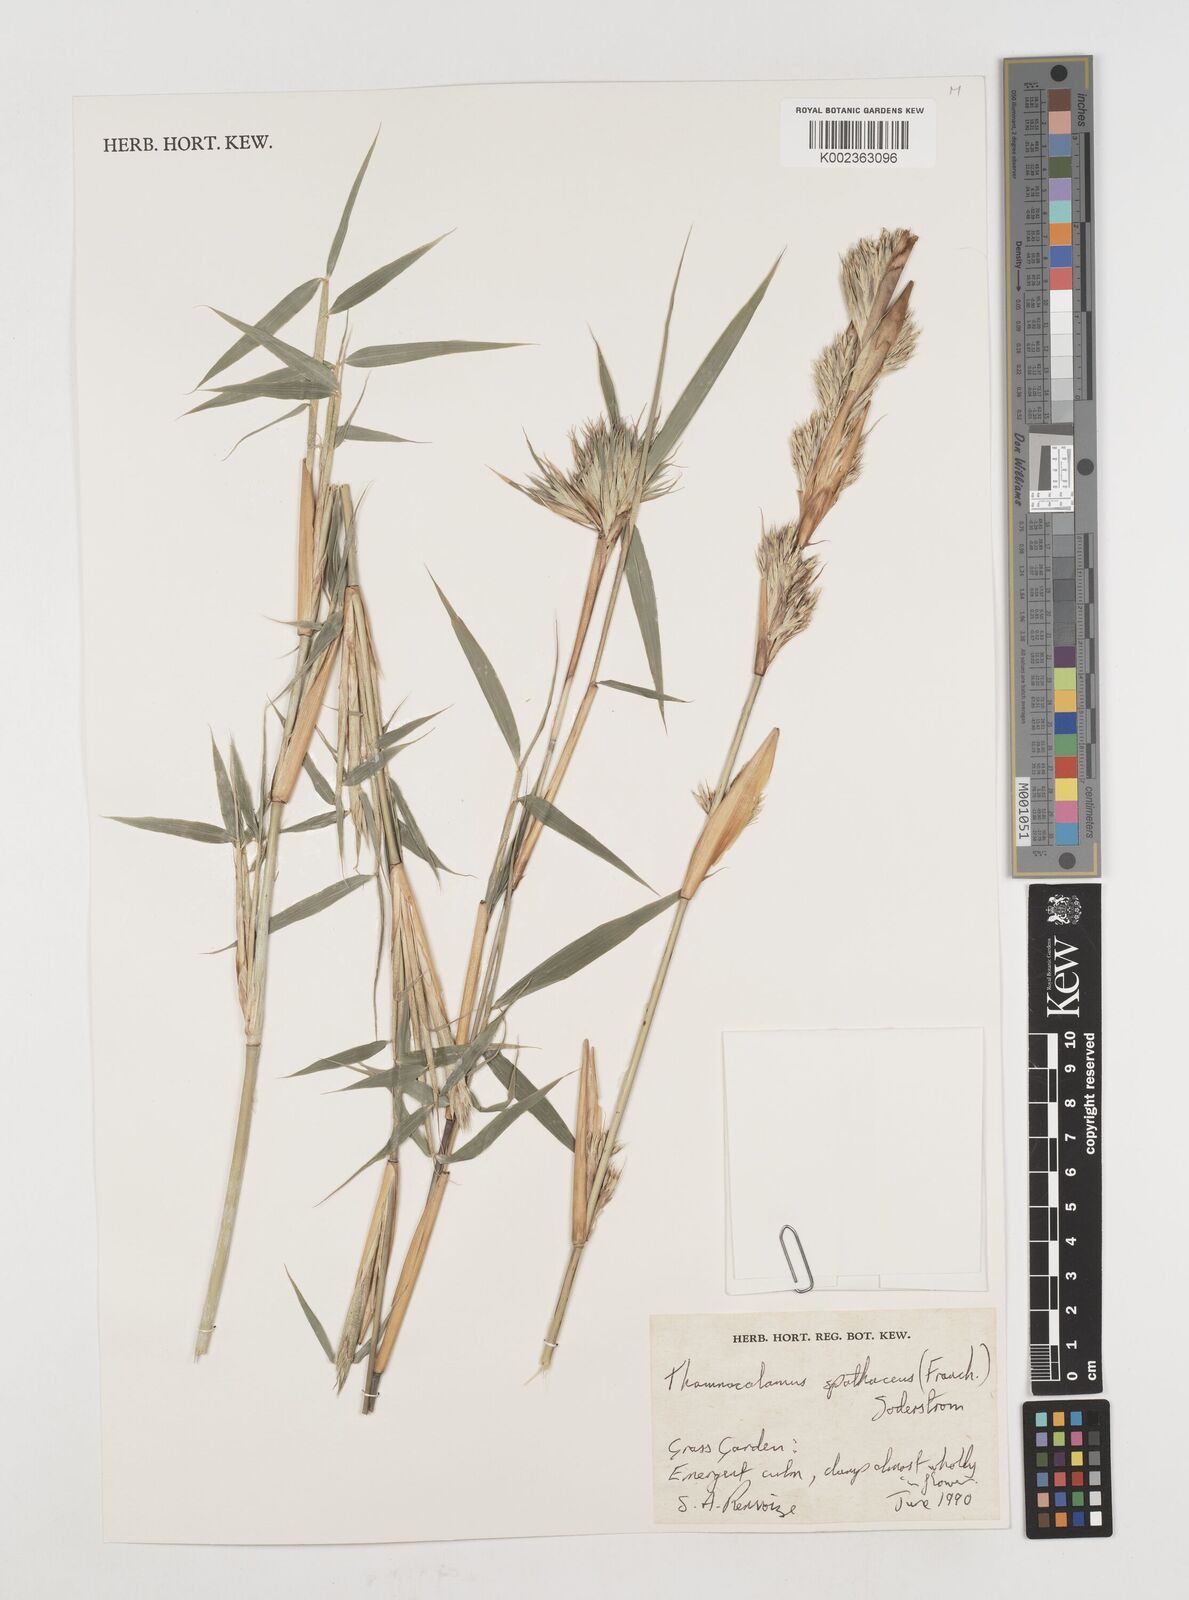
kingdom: Plantae
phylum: Tracheophyta
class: Liliopsida
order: Poales
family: Poaceae
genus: Fargesia
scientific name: Fargesia murielae
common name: Umbrella bamboo
